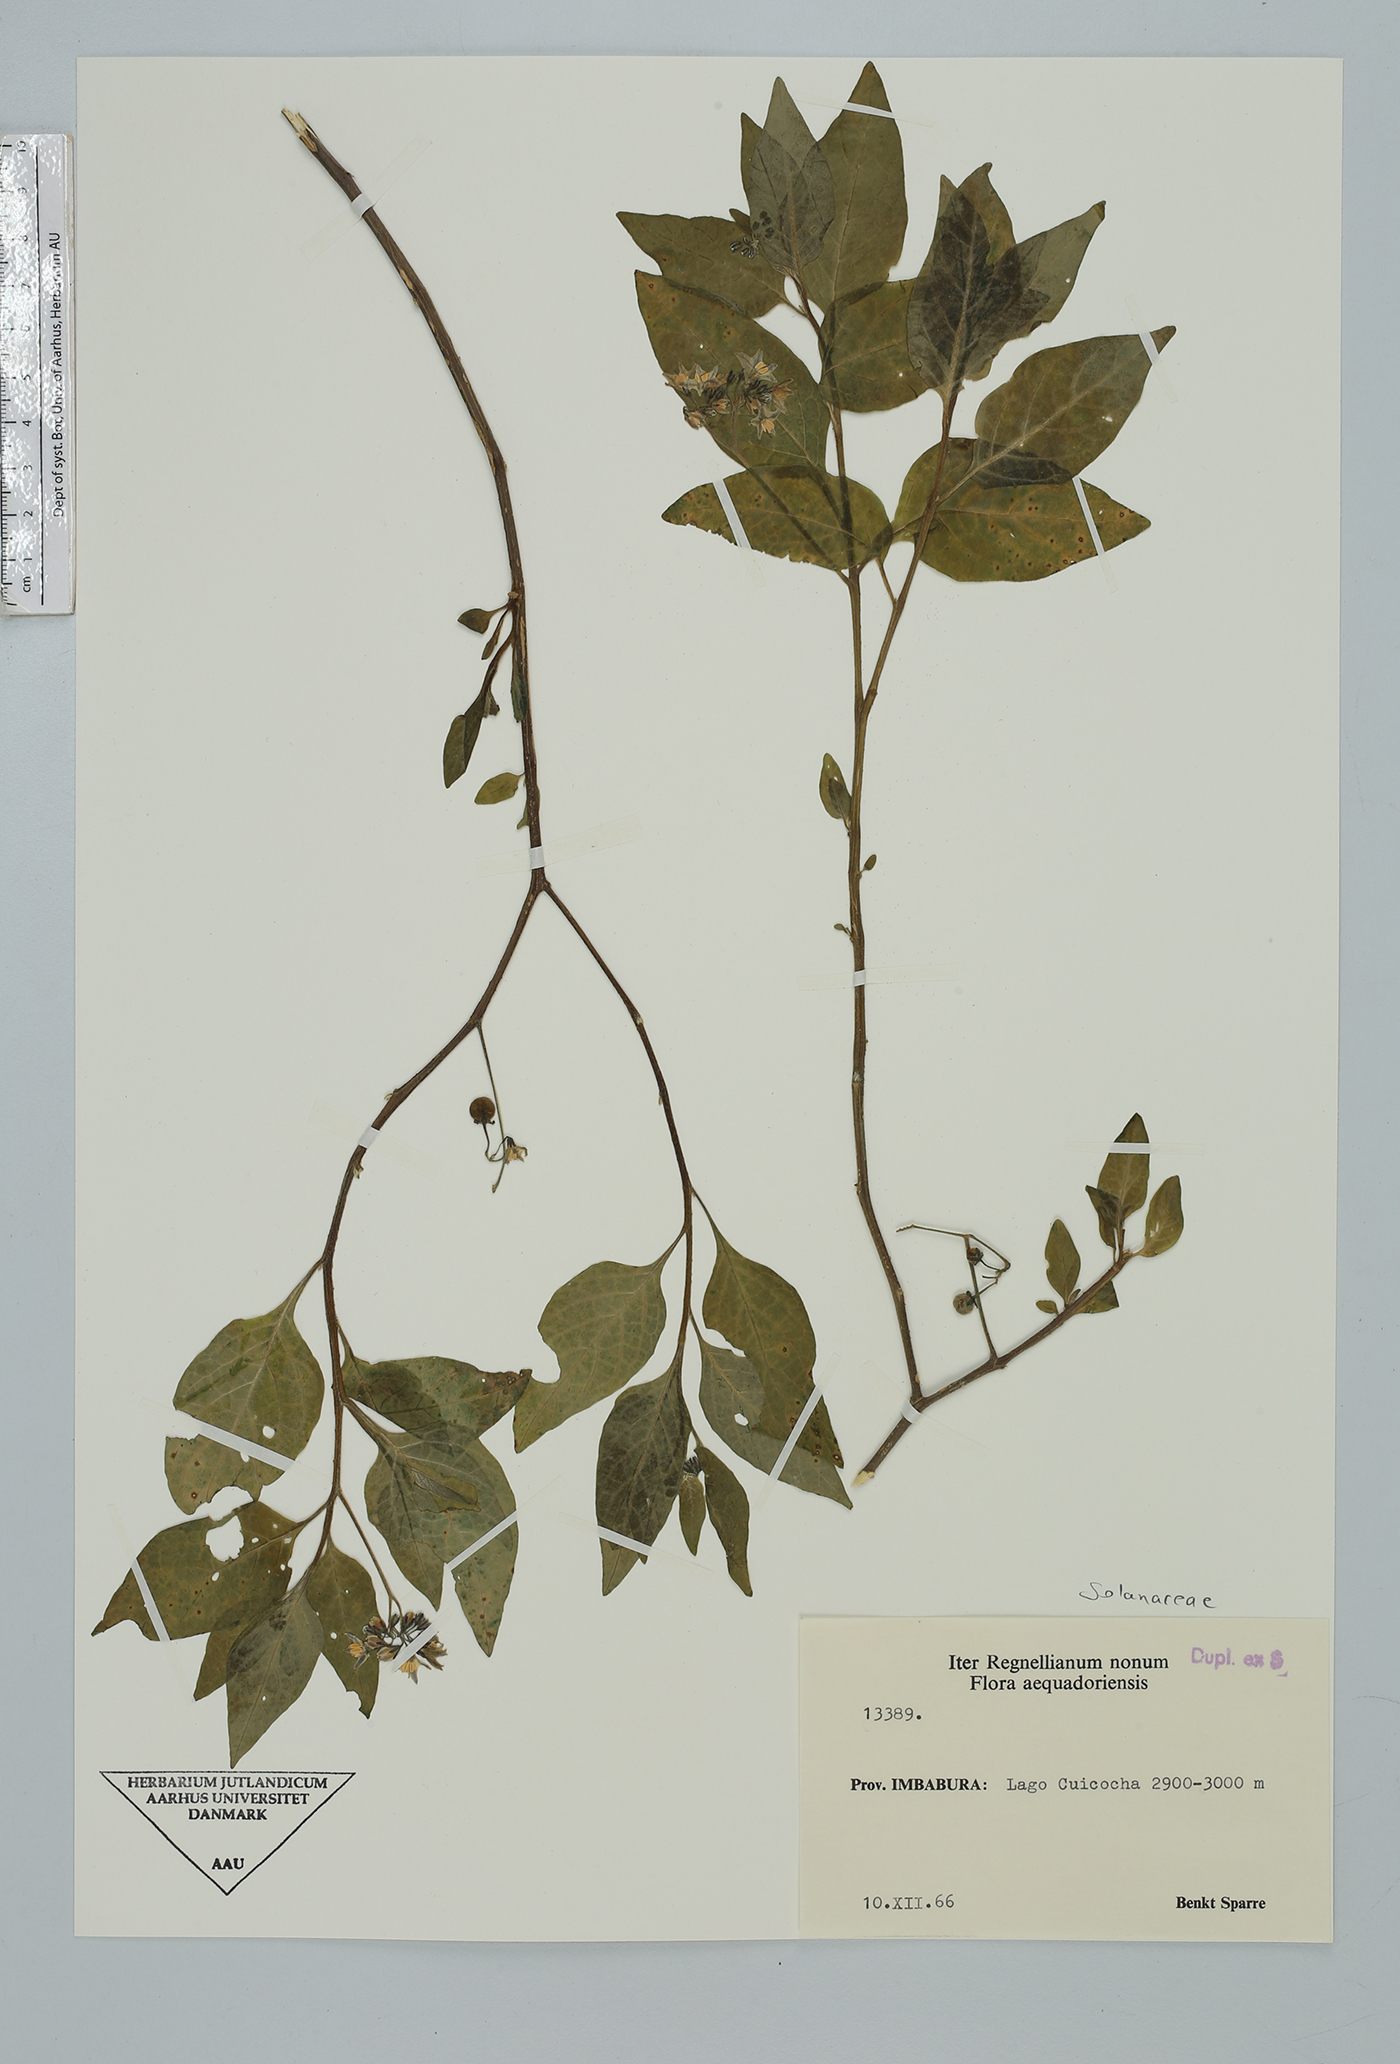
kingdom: Plantae
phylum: Tracheophyta
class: Magnoliopsida
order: Solanales
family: Solanaceae
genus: Solanum
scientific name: Solanum interandinum
